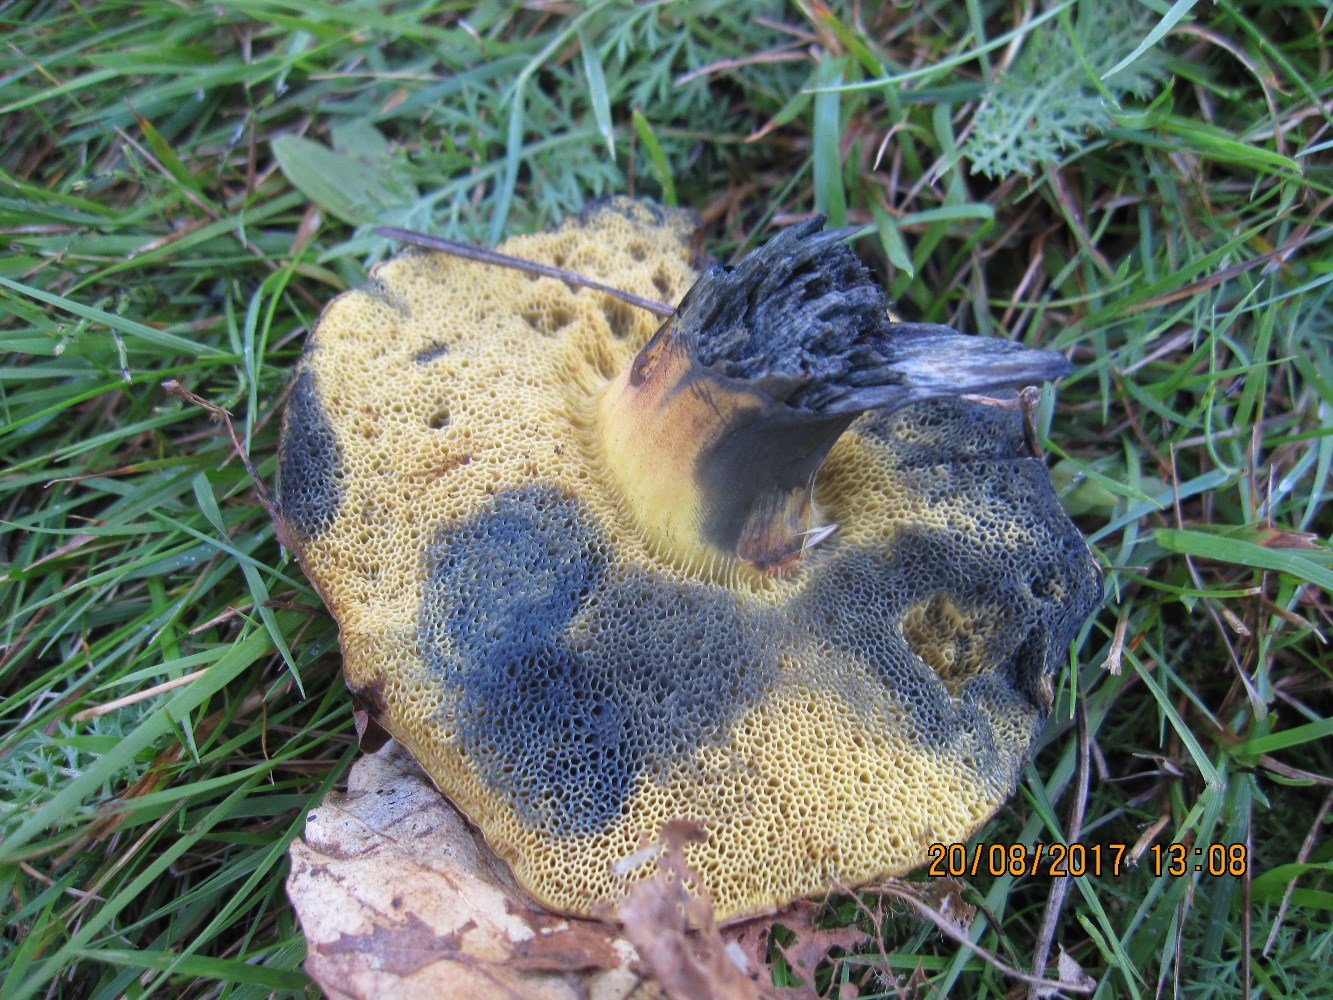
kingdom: Fungi
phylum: Basidiomycota
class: Agaricomycetes
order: Boletales
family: Boletaceae
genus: Cyanoboletus
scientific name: Cyanoboletus pulverulentus
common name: sortblånende rørhat
